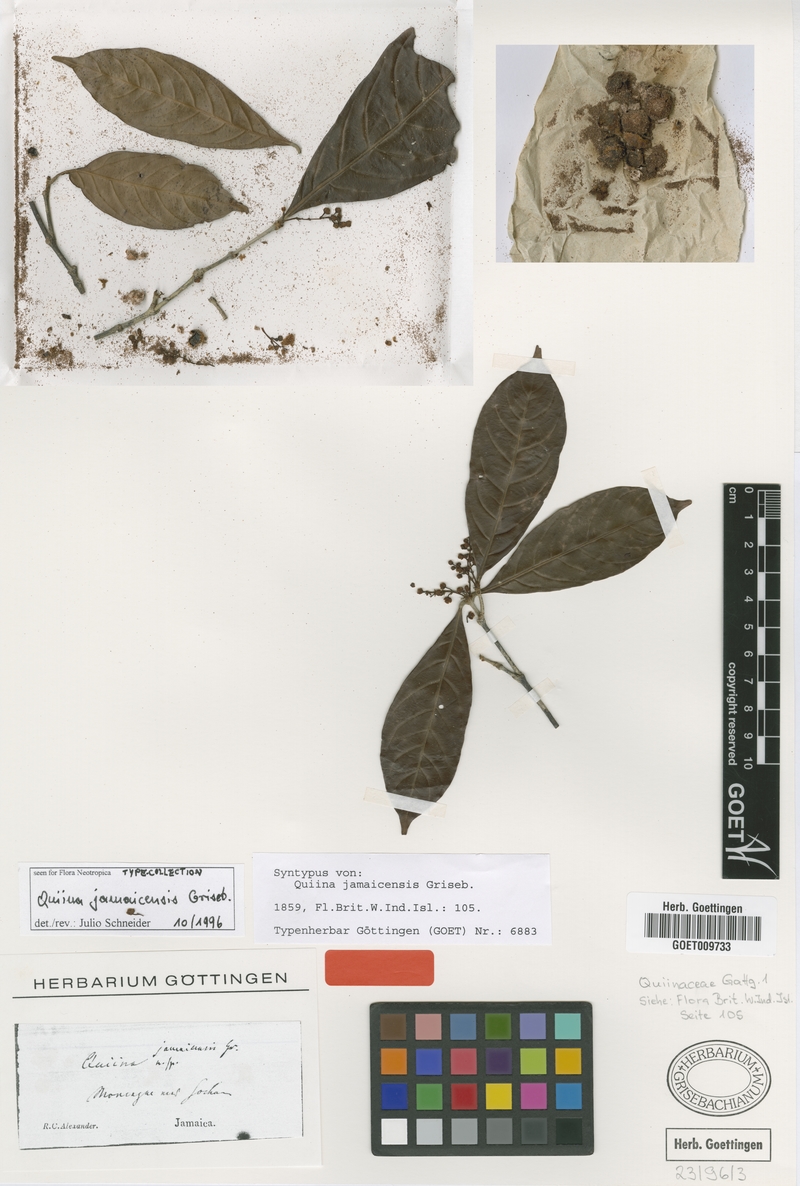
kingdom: Plantae
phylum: Tracheophyta
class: Magnoliopsida
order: Malpighiales
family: Quiinaceae
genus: Quiina
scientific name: Quiina jamaicensis
